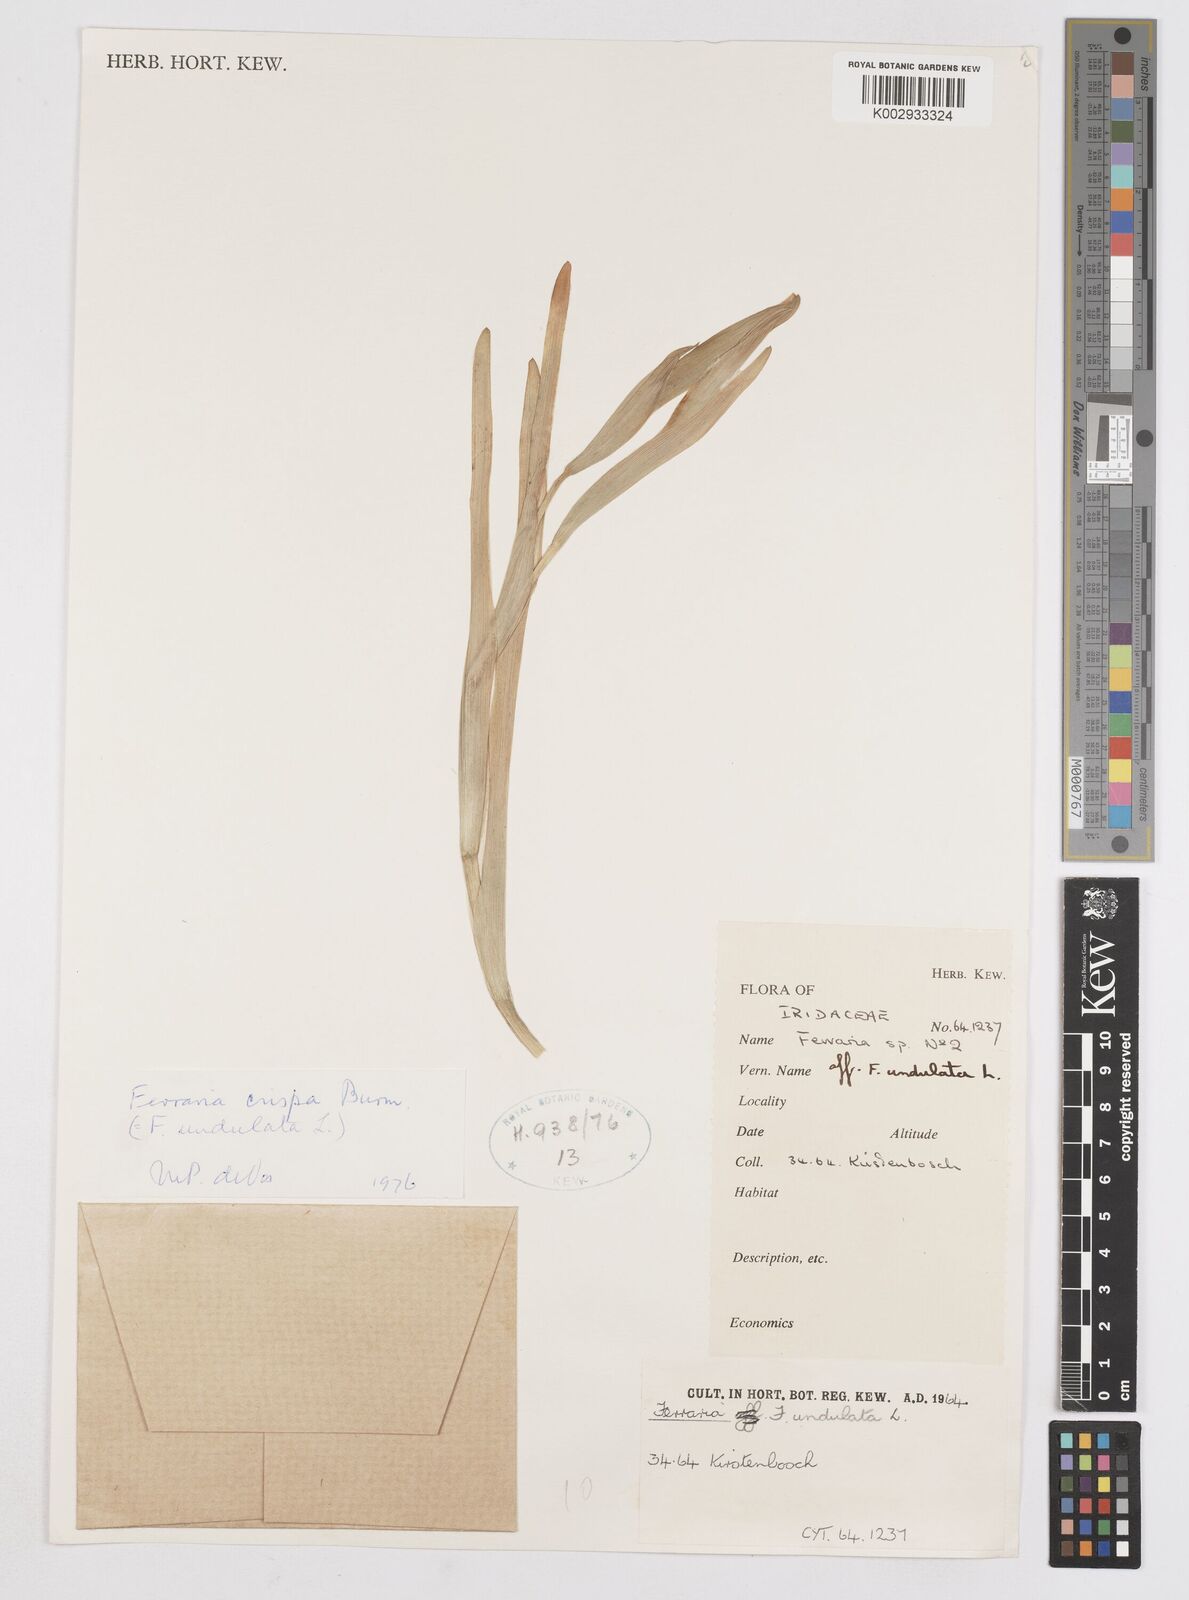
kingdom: Plantae
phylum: Tracheophyta
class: Liliopsida
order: Asparagales
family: Iridaceae
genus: Ferraria
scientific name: Ferraria crispa
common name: Black-flag
